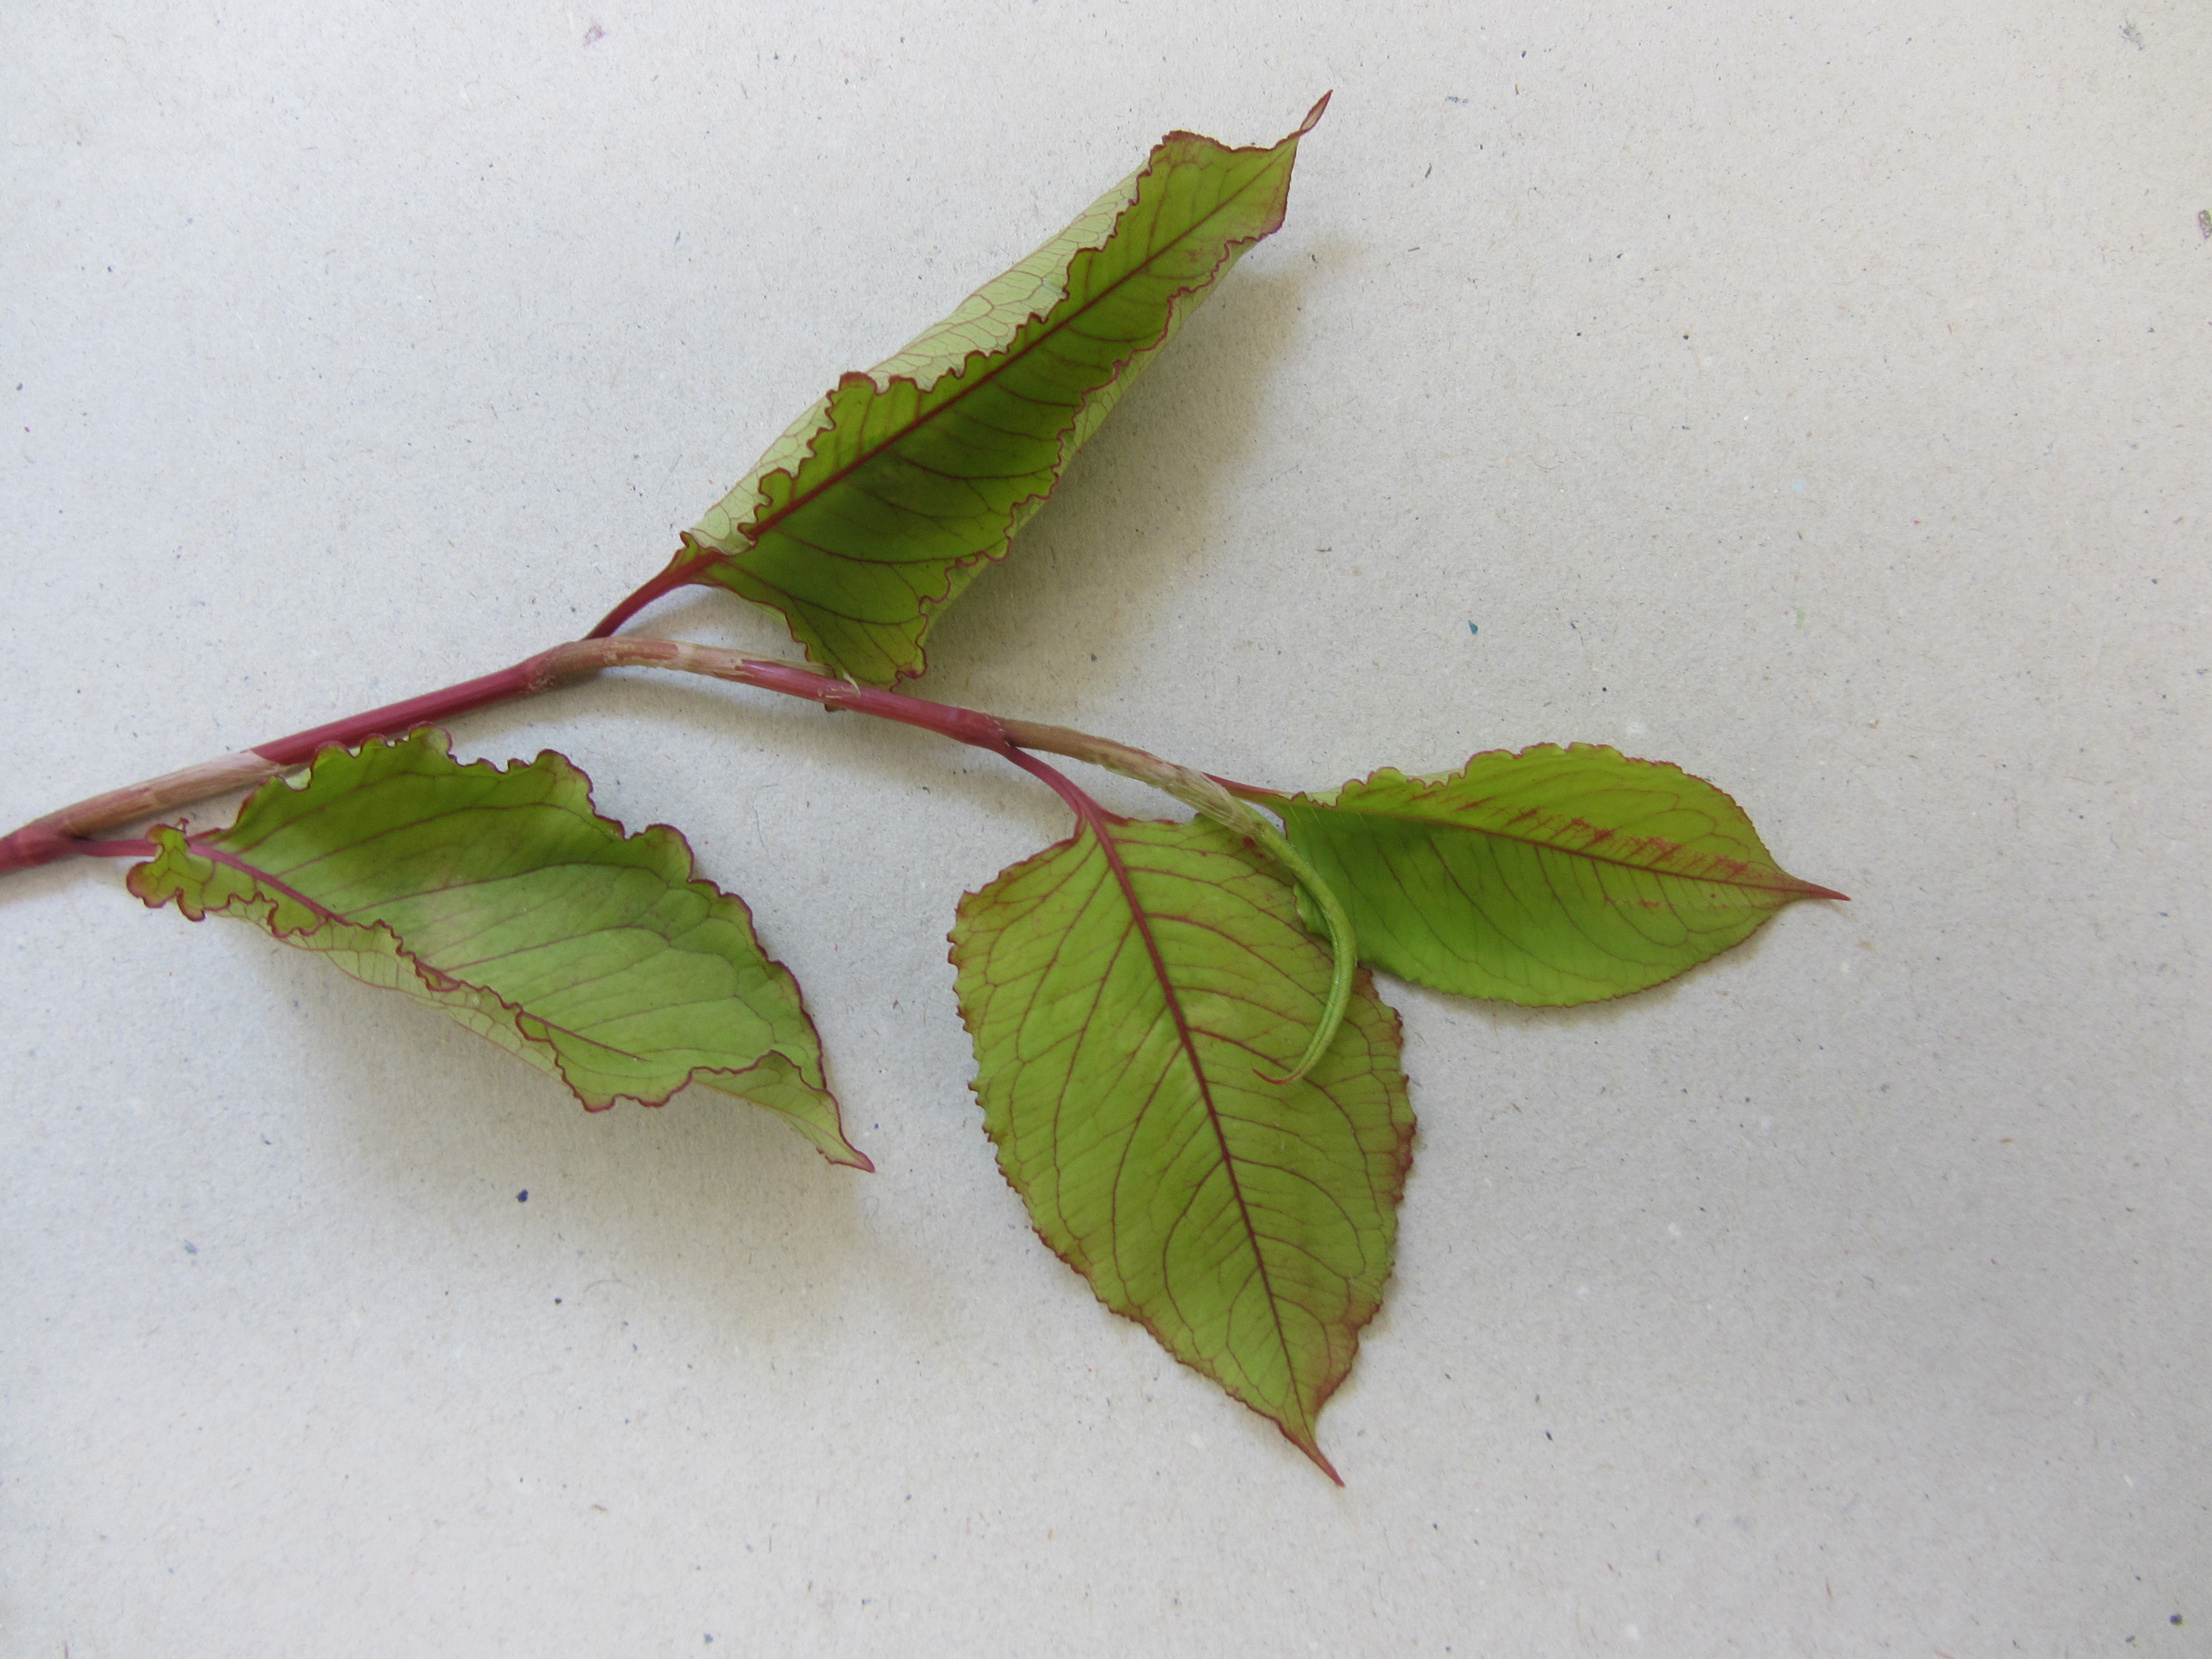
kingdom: Plantae
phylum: Tracheophyta
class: Magnoliopsida
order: Caryophyllales
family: Polygonaceae
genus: Persicaria
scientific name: Persicaria chinensis
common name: Chinese knotweed
